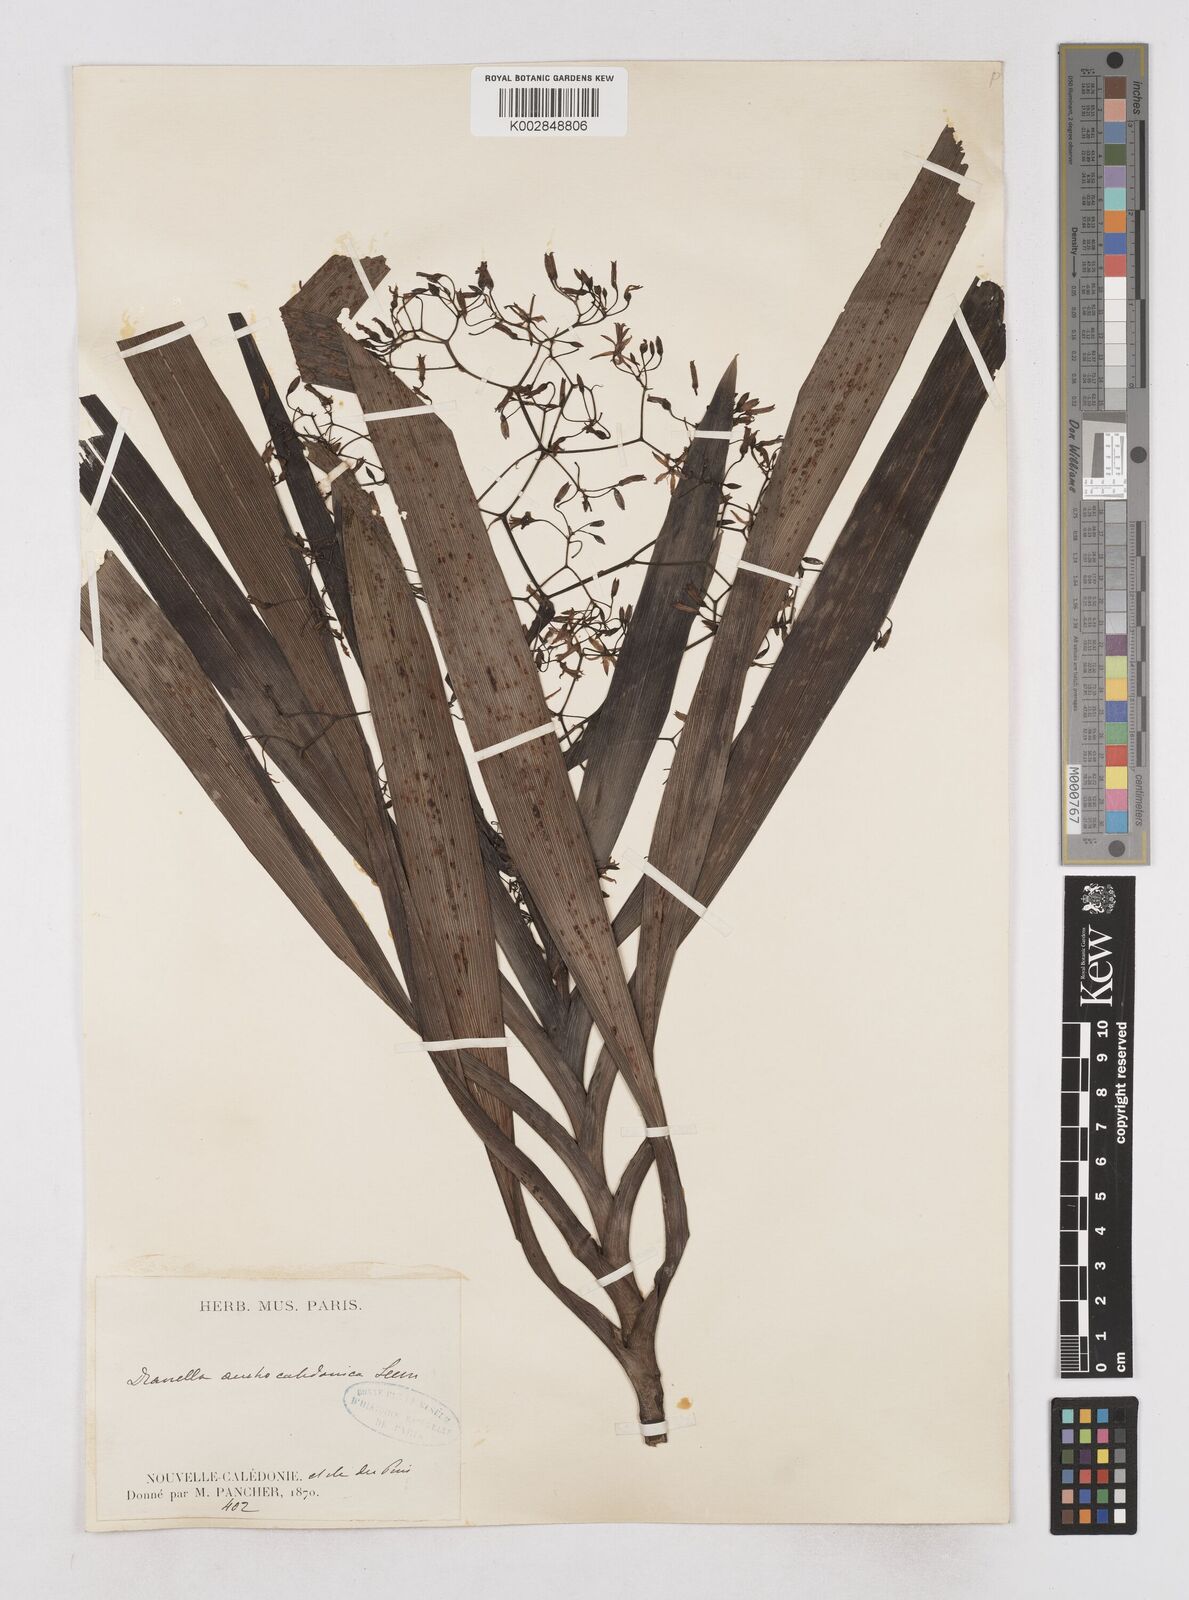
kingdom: Plantae
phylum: Tracheophyta
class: Liliopsida
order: Asparagales
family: Asphodelaceae
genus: Rhuacophila
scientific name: Rhuacophila javanica
